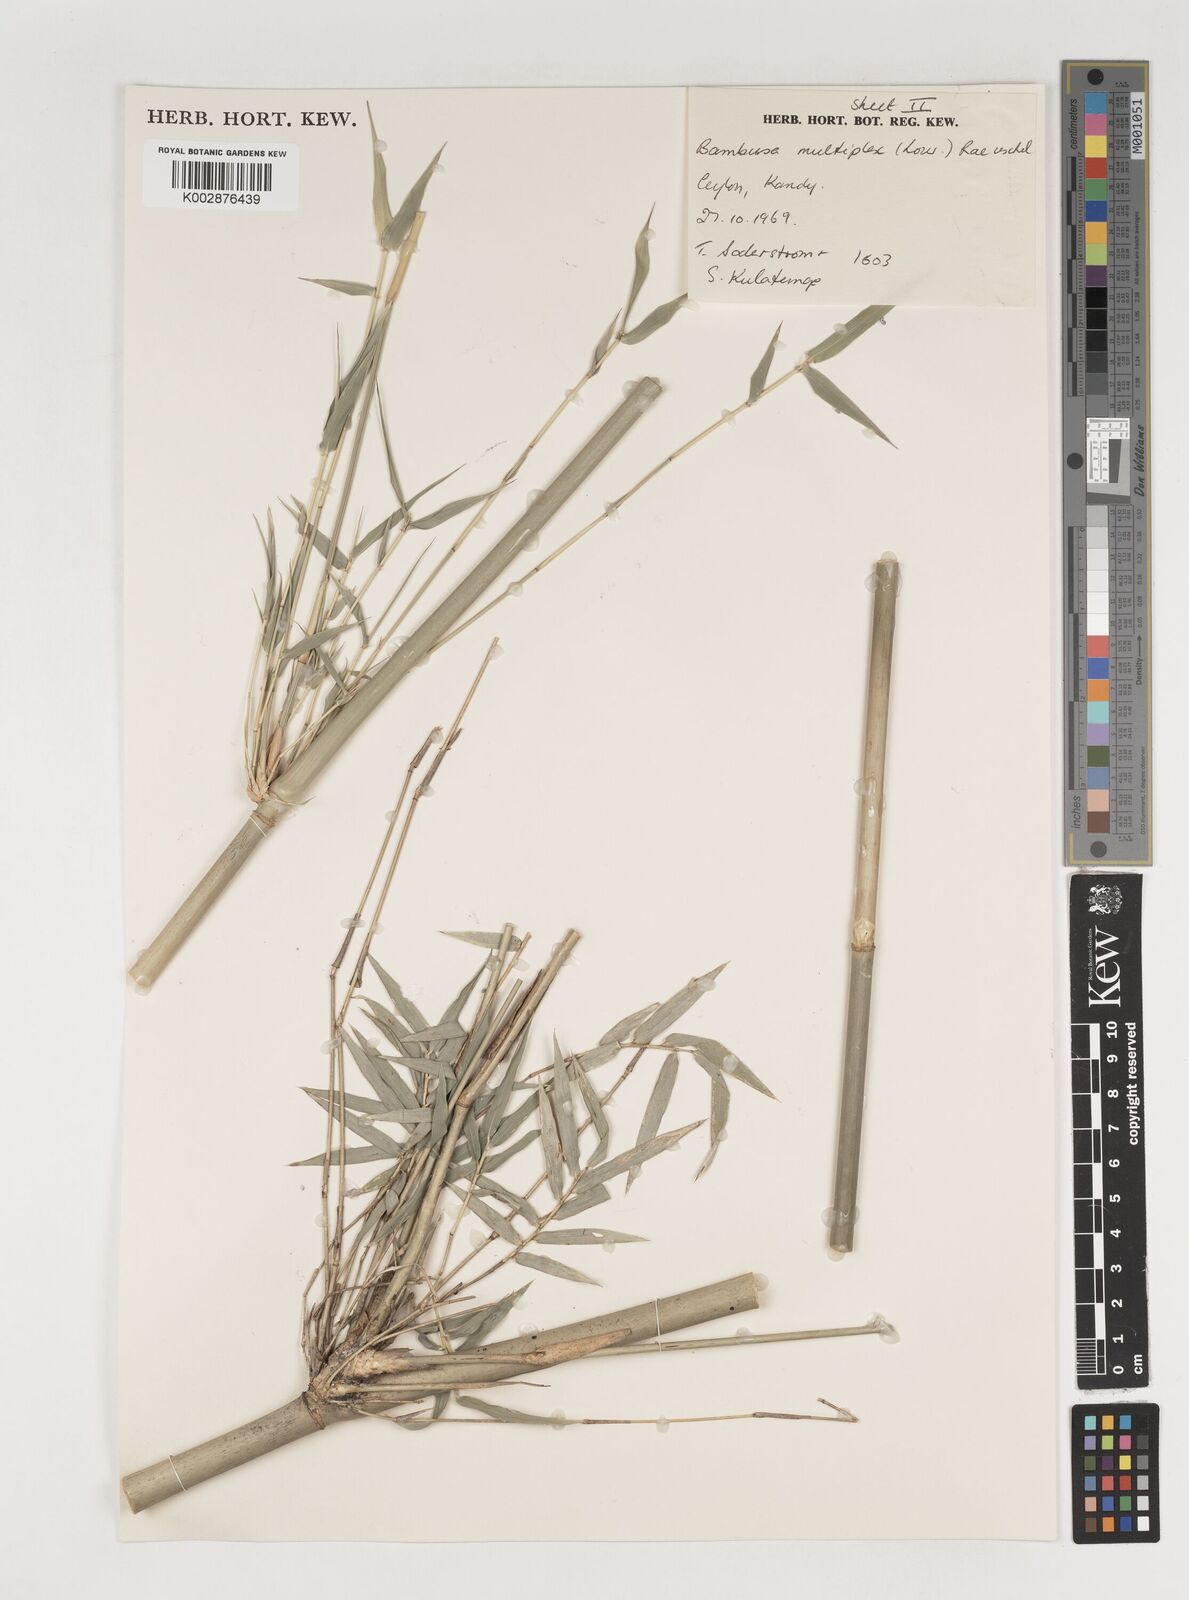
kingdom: Plantae
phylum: Tracheophyta
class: Liliopsida
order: Poales
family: Poaceae
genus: Bambusa
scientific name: Bambusa multiplex
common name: Hedge bamboo
